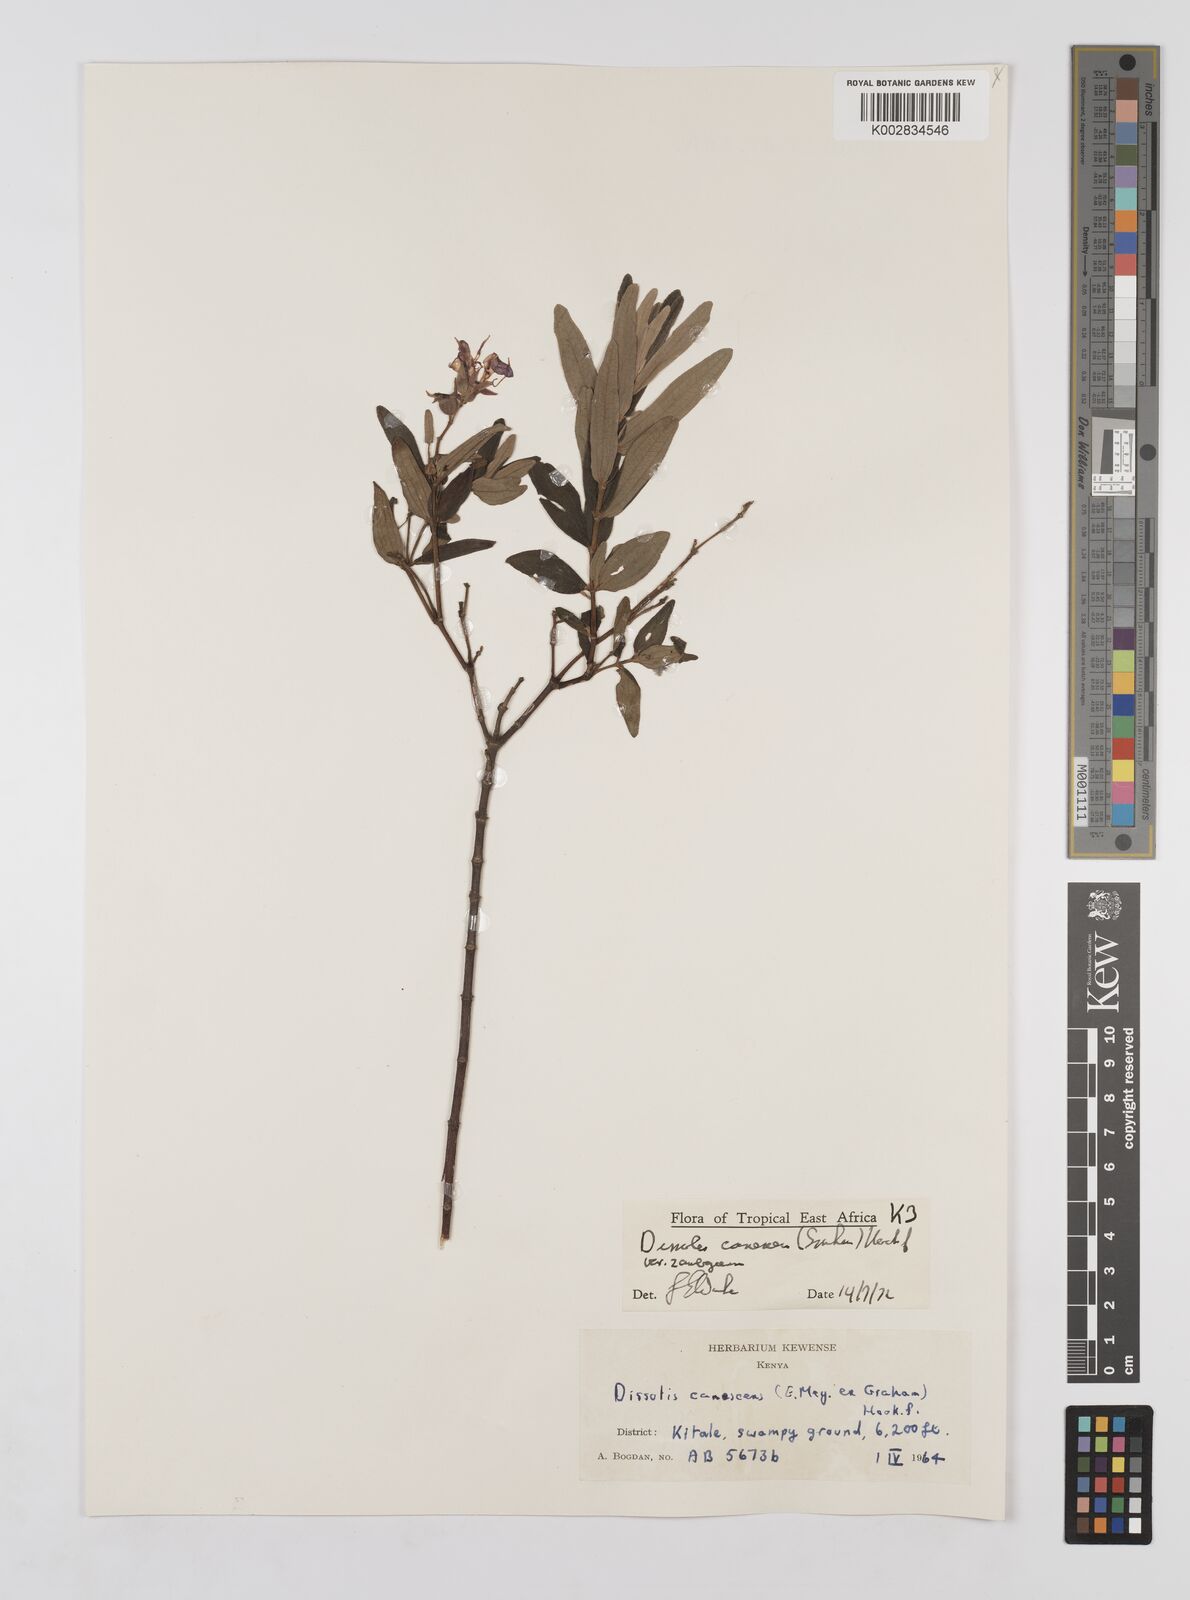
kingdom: Plantae
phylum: Tracheophyta
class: Magnoliopsida
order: Myrtales
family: Melastomataceae
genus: Argyrella
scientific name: Argyrella canescens
